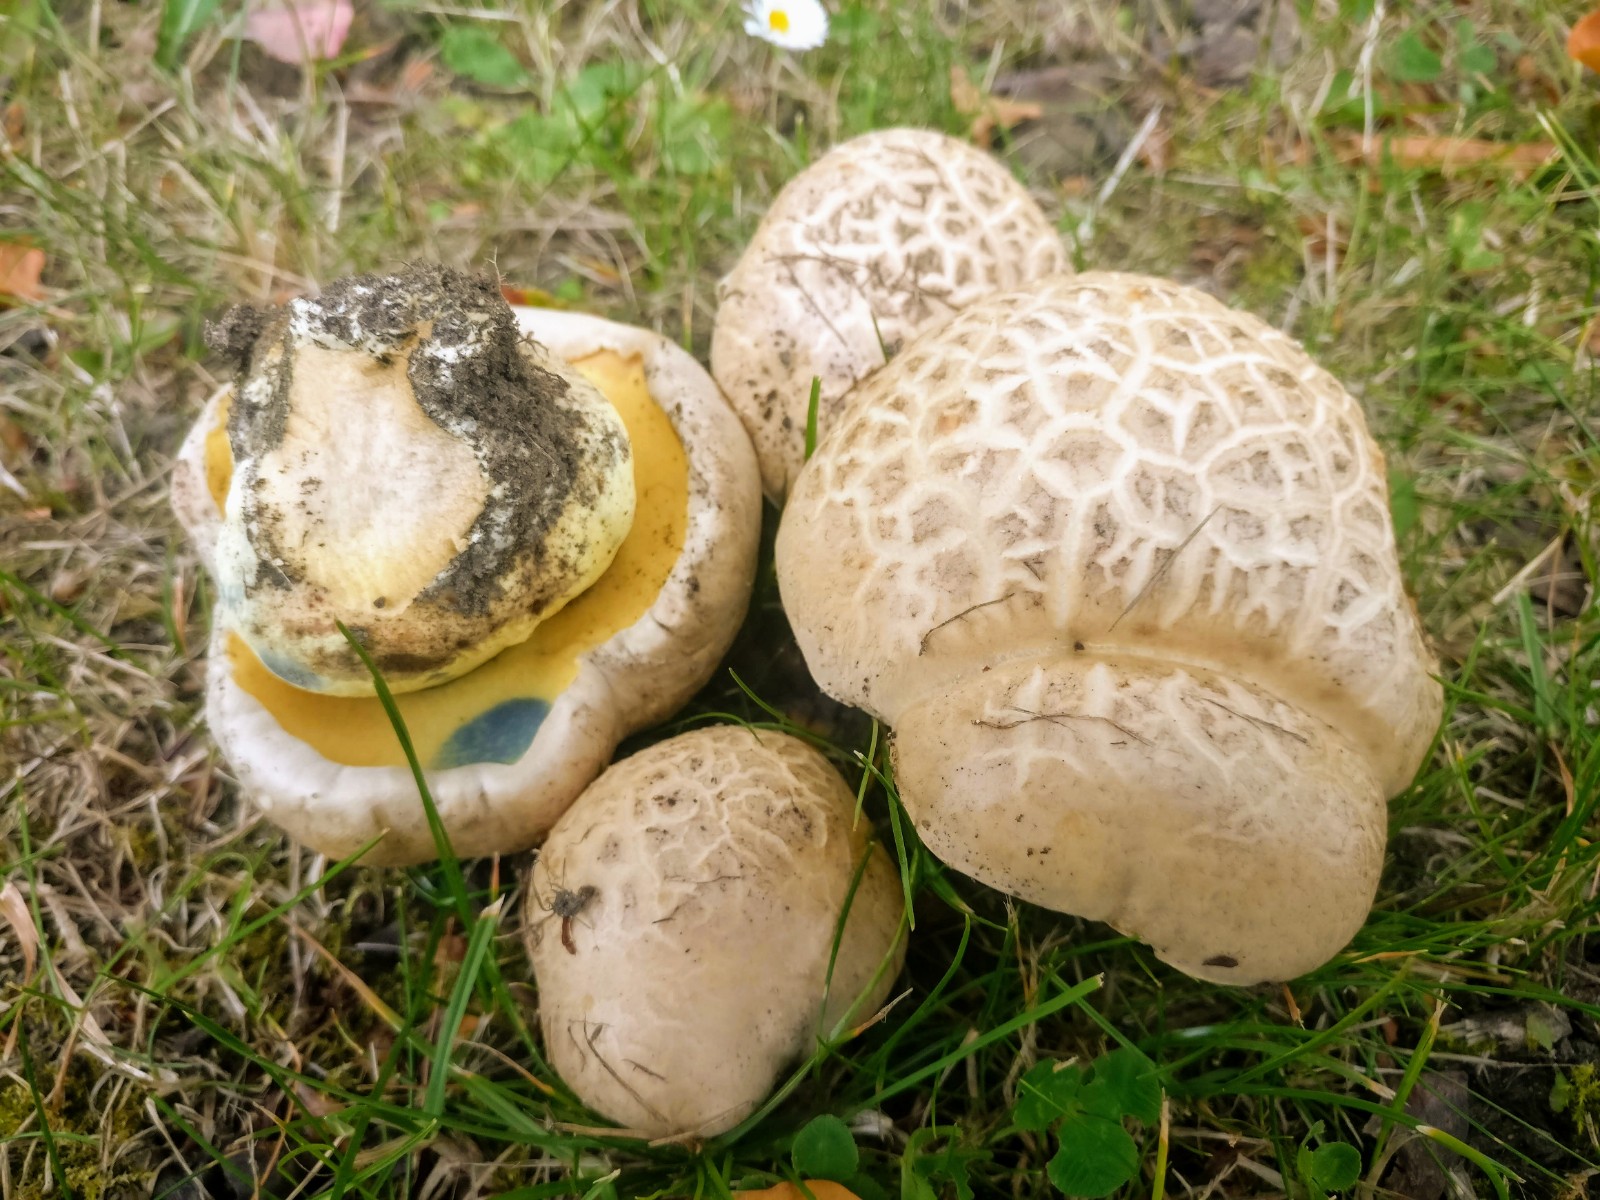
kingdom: Fungi
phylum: Basidiomycota
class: Agaricomycetes
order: Boletales
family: Boletaceae
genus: Caloboletus
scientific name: Caloboletus radicans
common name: rod-rørhat
